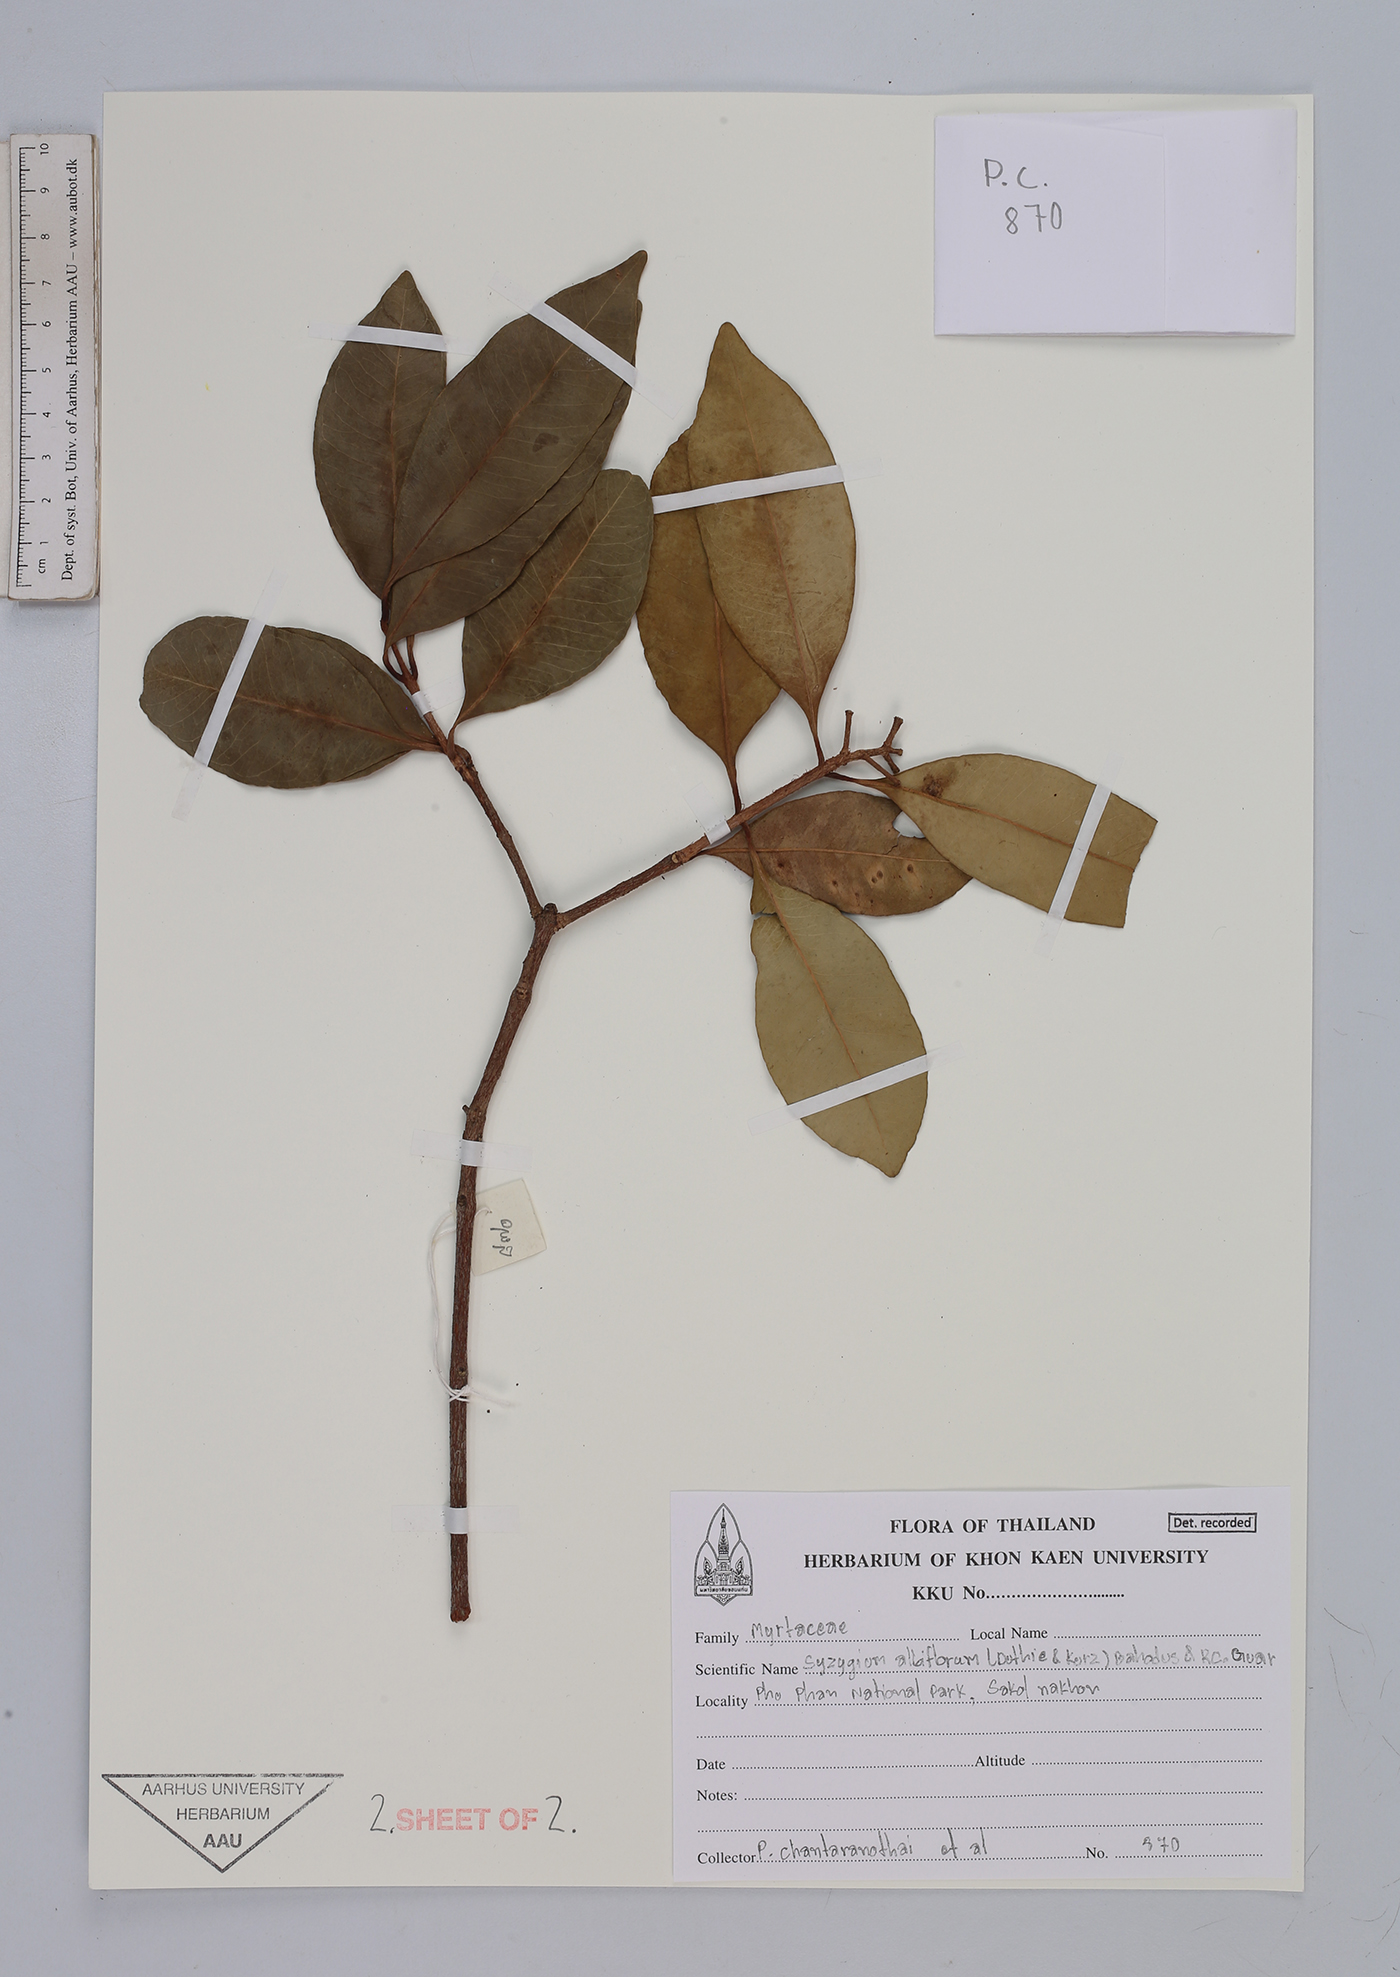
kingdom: Plantae
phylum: Tracheophyta
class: Magnoliopsida
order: Myrtales
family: Myrtaceae
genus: Syzygium
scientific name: Syzygium albiflorum
